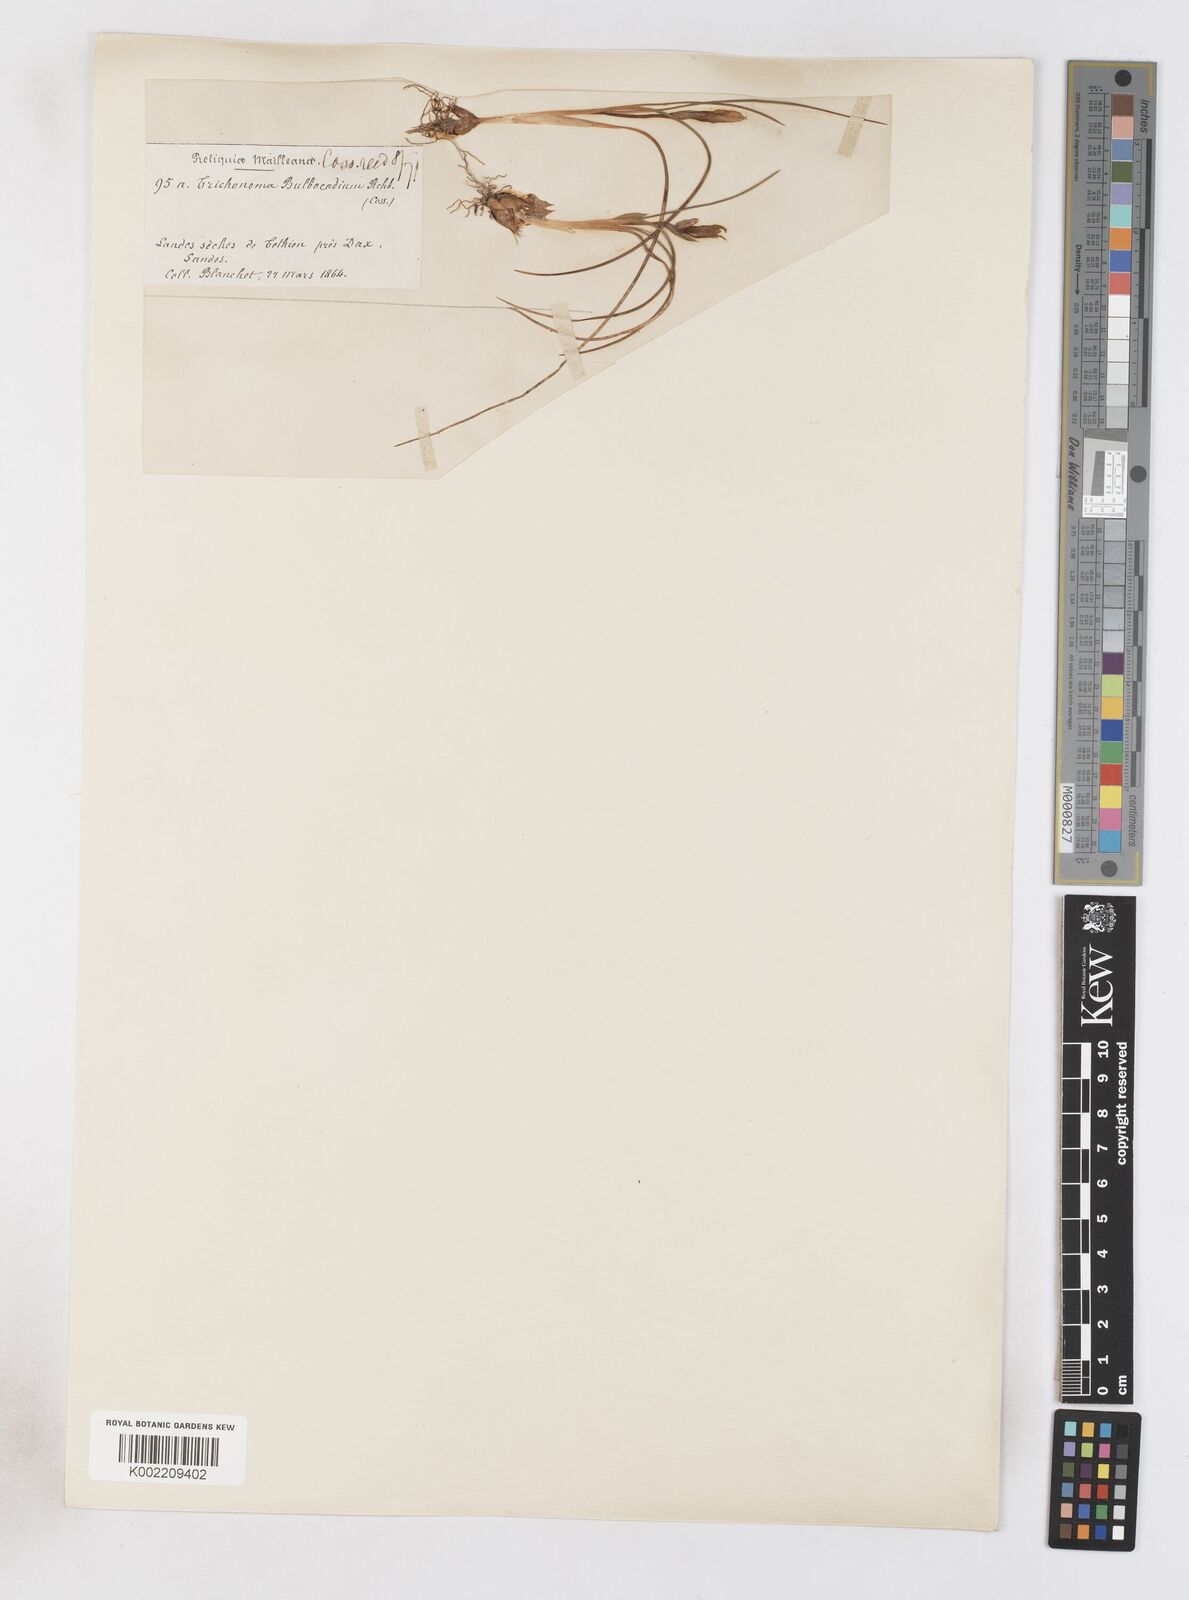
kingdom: Plantae
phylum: Tracheophyta
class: Liliopsida
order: Asparagales
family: Iridaceae
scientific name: Iridaceae
